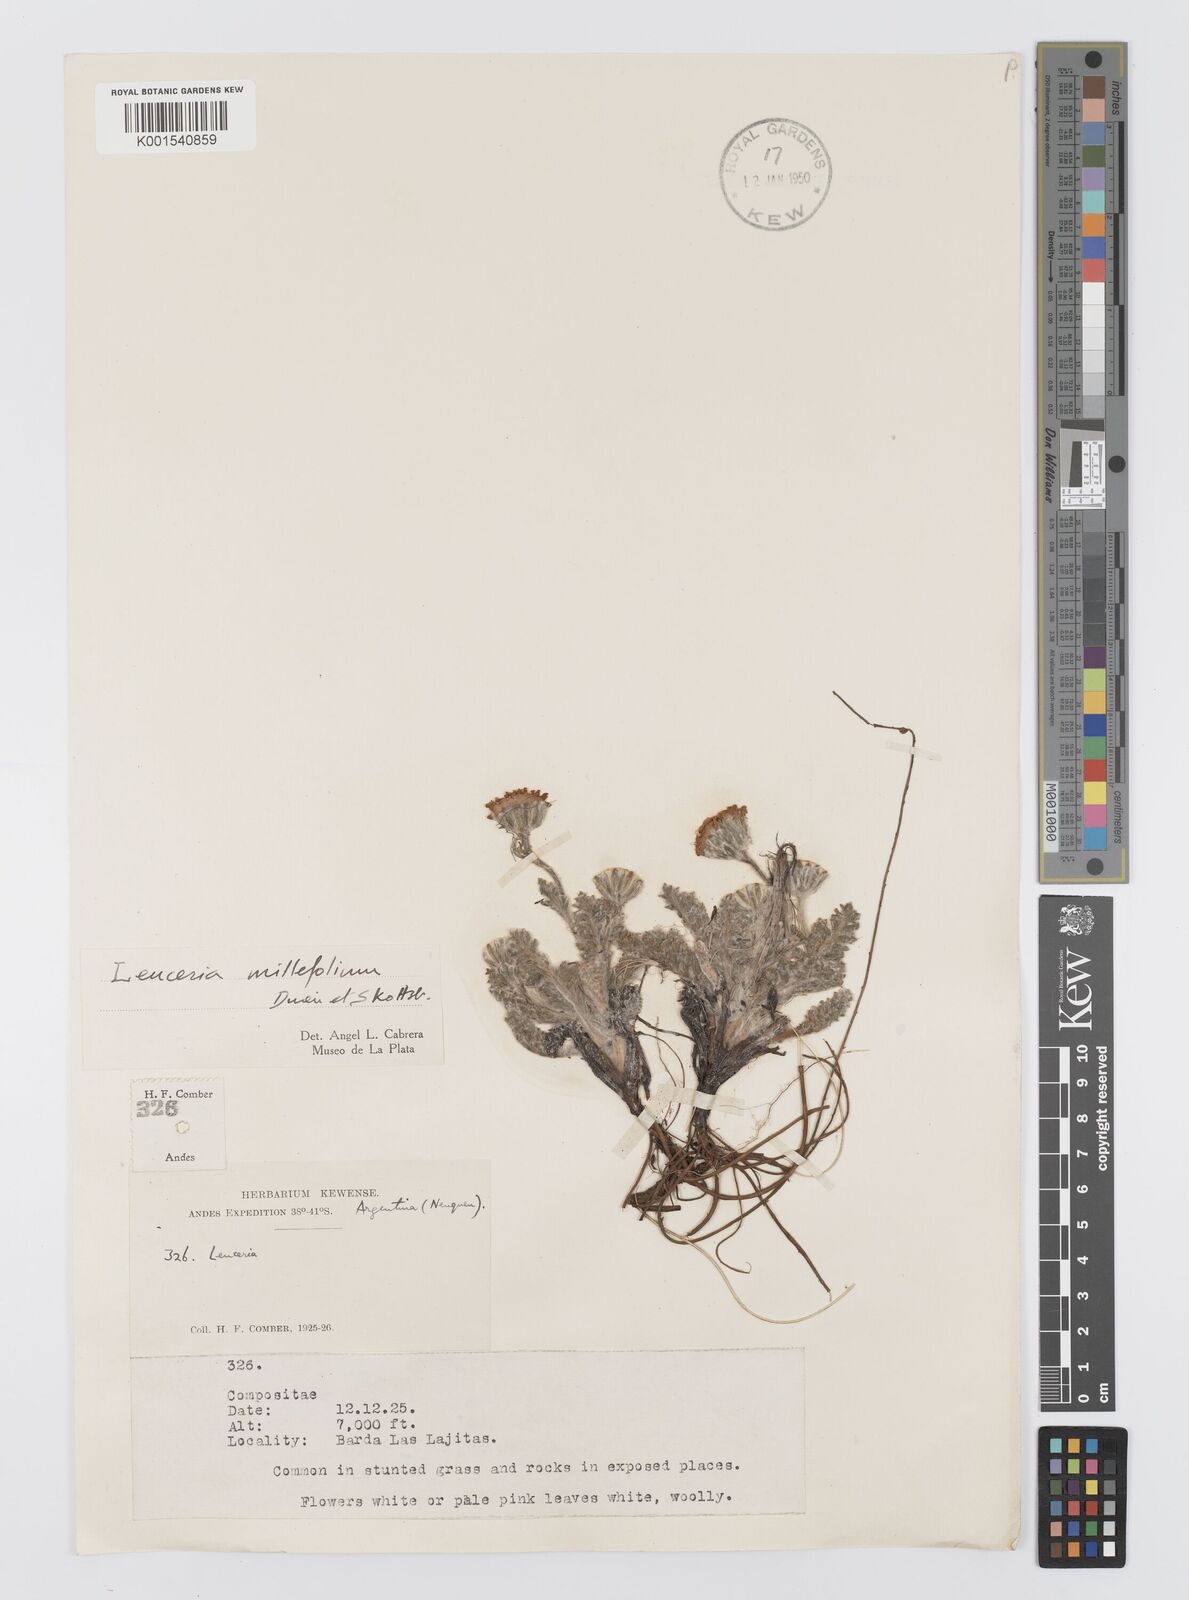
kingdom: Plantae
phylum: Tracheophyta
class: Magnoliopsida
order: Asterales
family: Asteraceae
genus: Leucheria
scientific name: Leucheria millefolium
